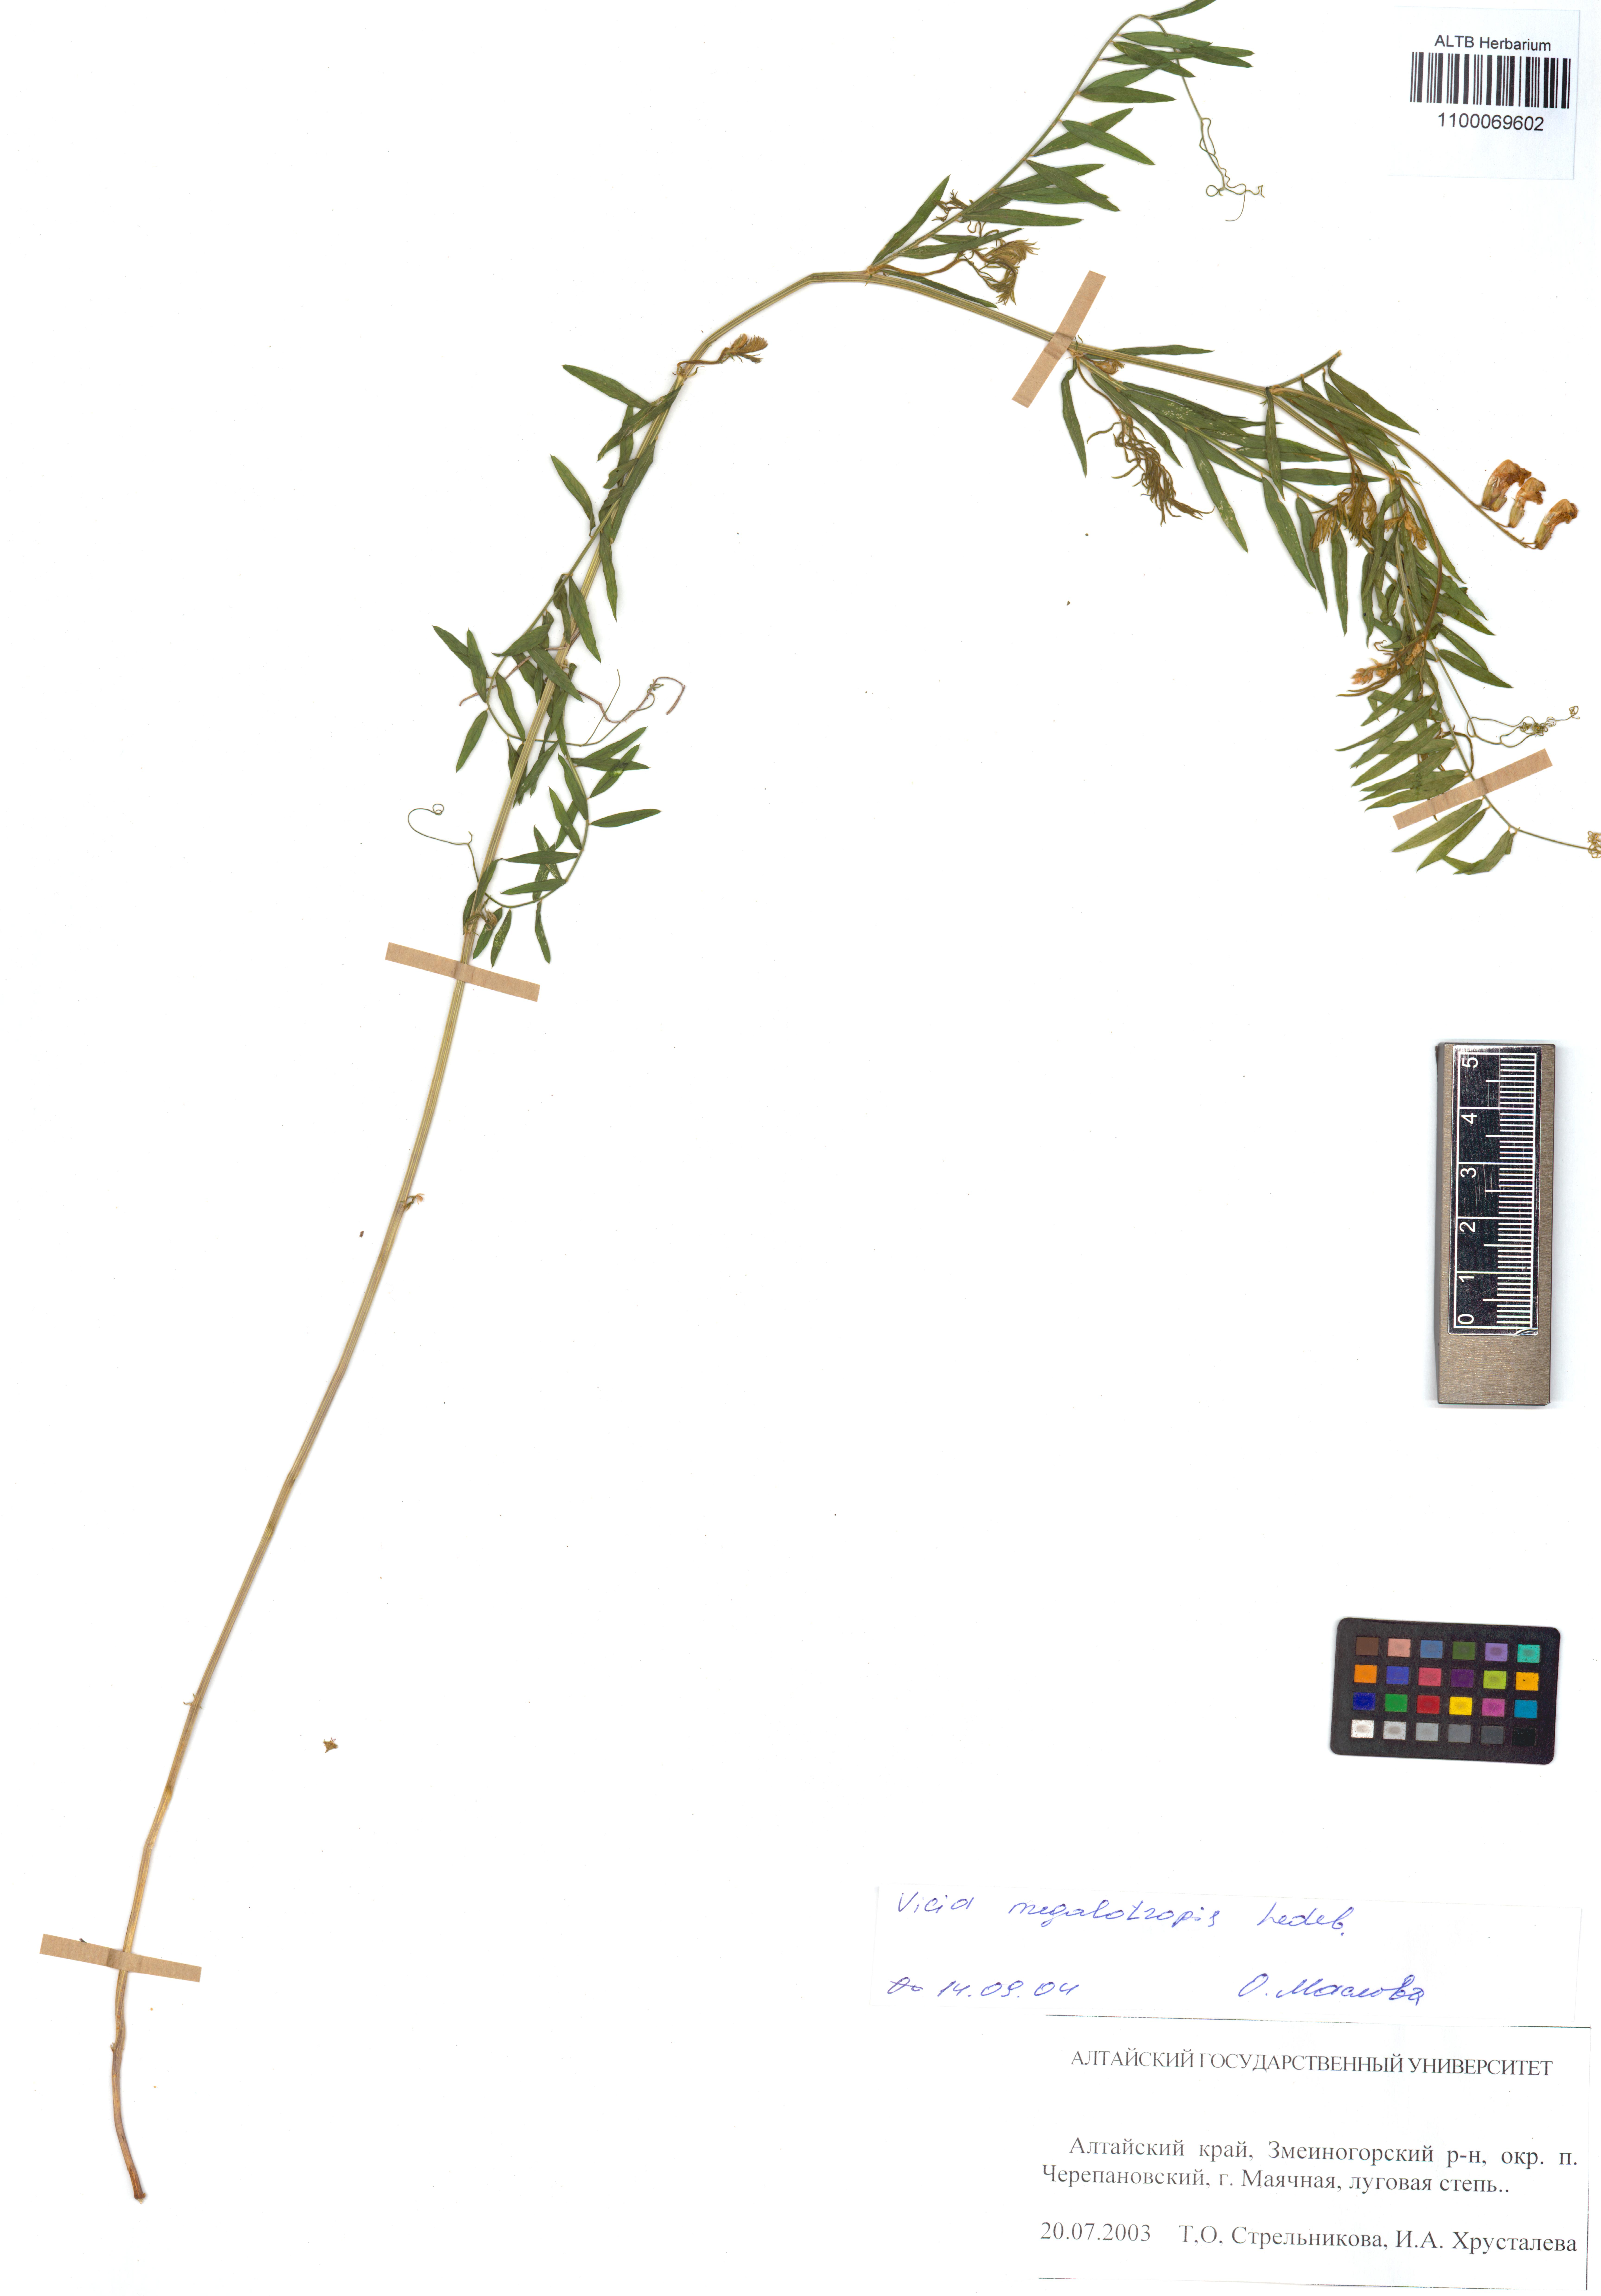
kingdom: Plantae
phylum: Tracheophyta
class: Magnoliopsida
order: Fabales
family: Fabaceae
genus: Vicia
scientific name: Vicia megalotropis
